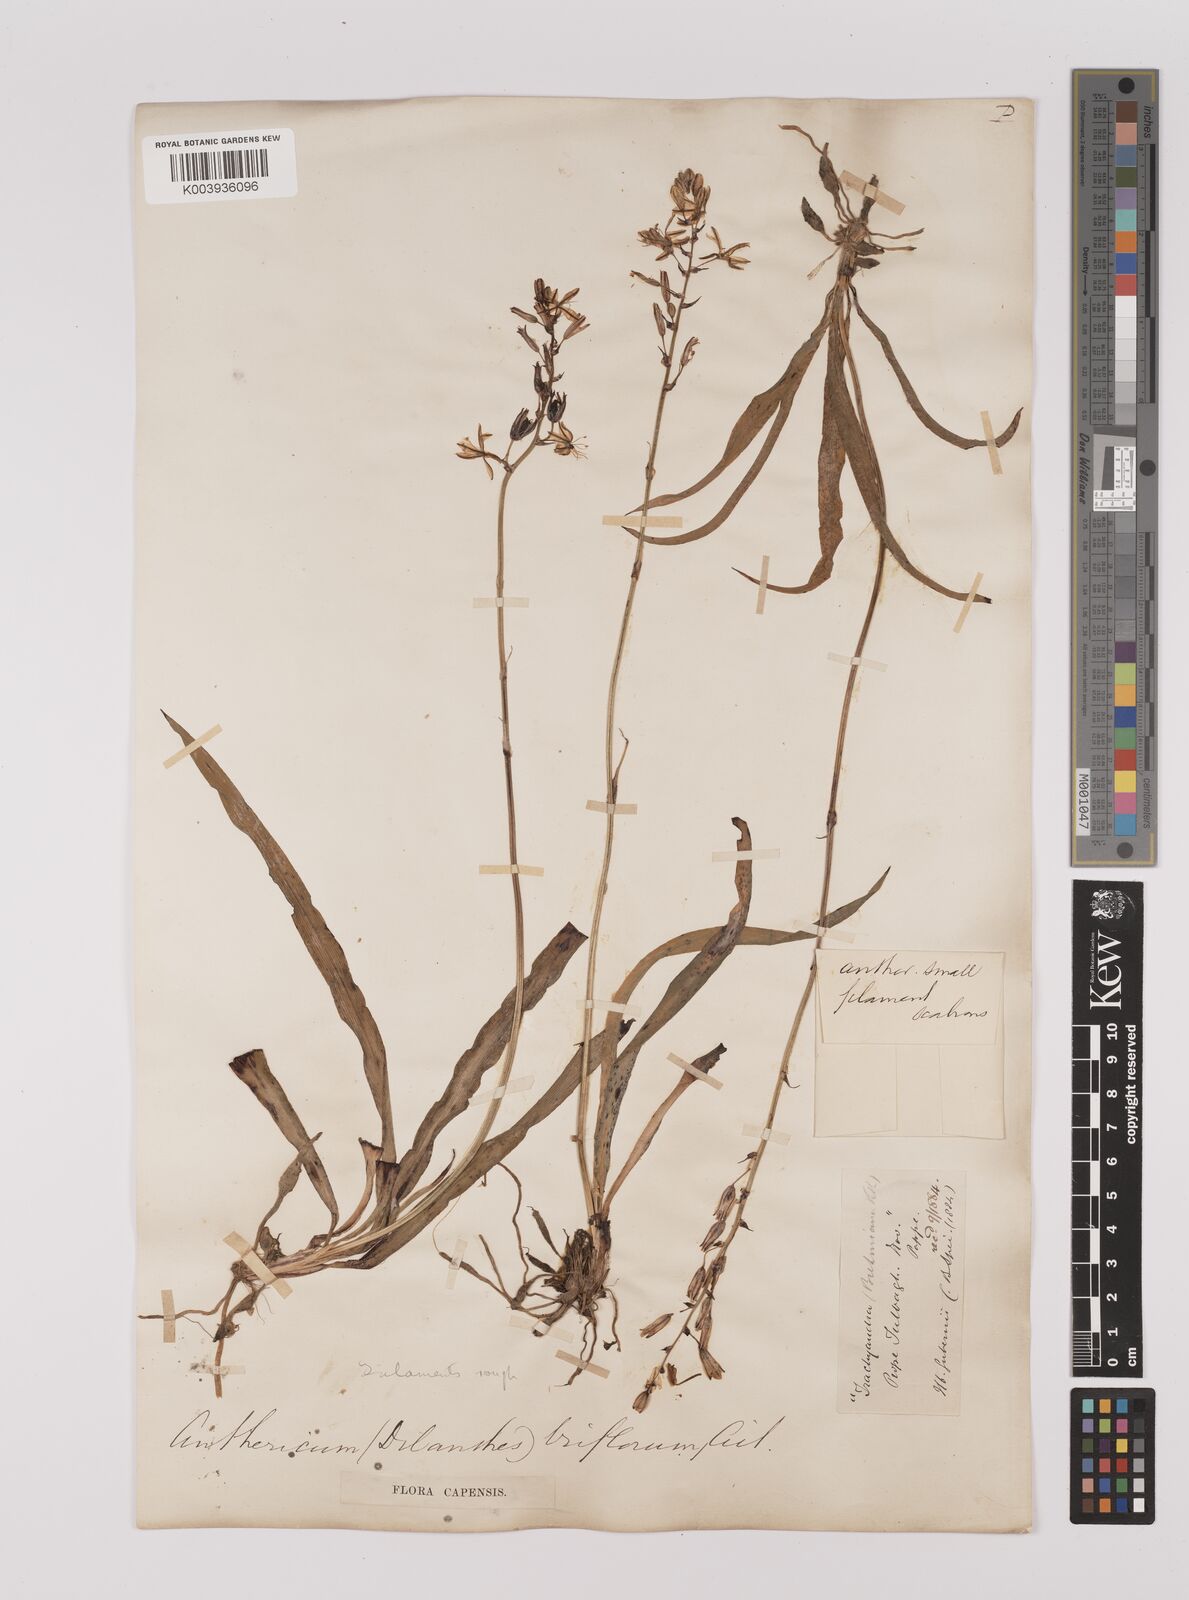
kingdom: Plantae
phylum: Tracheophyta
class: Liliopsida
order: Asparagales
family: Asparagaceae
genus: Chlorophytum
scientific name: Chlorophytum triflorum
